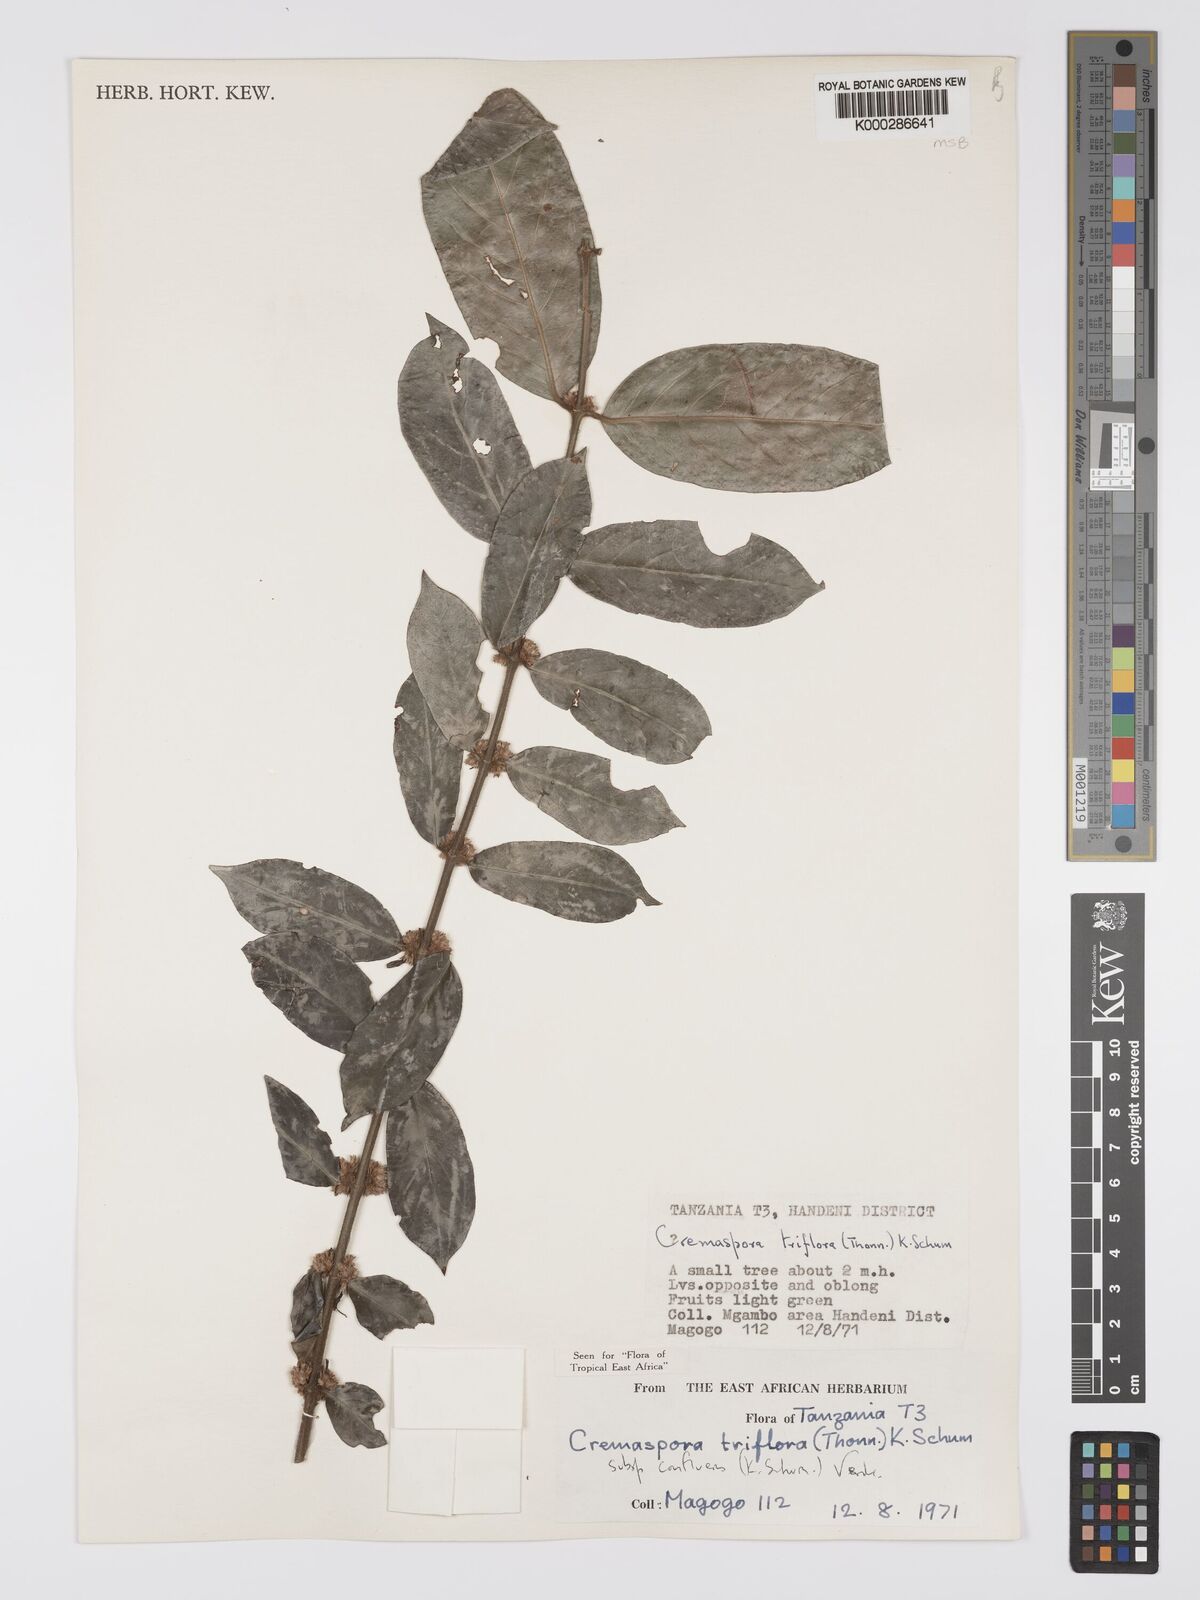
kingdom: Plantae
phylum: Tracheophyta
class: Magnoliopsida
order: Gentianales
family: Rubiaceae
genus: Cremaspora
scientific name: Cremaspora triflora
